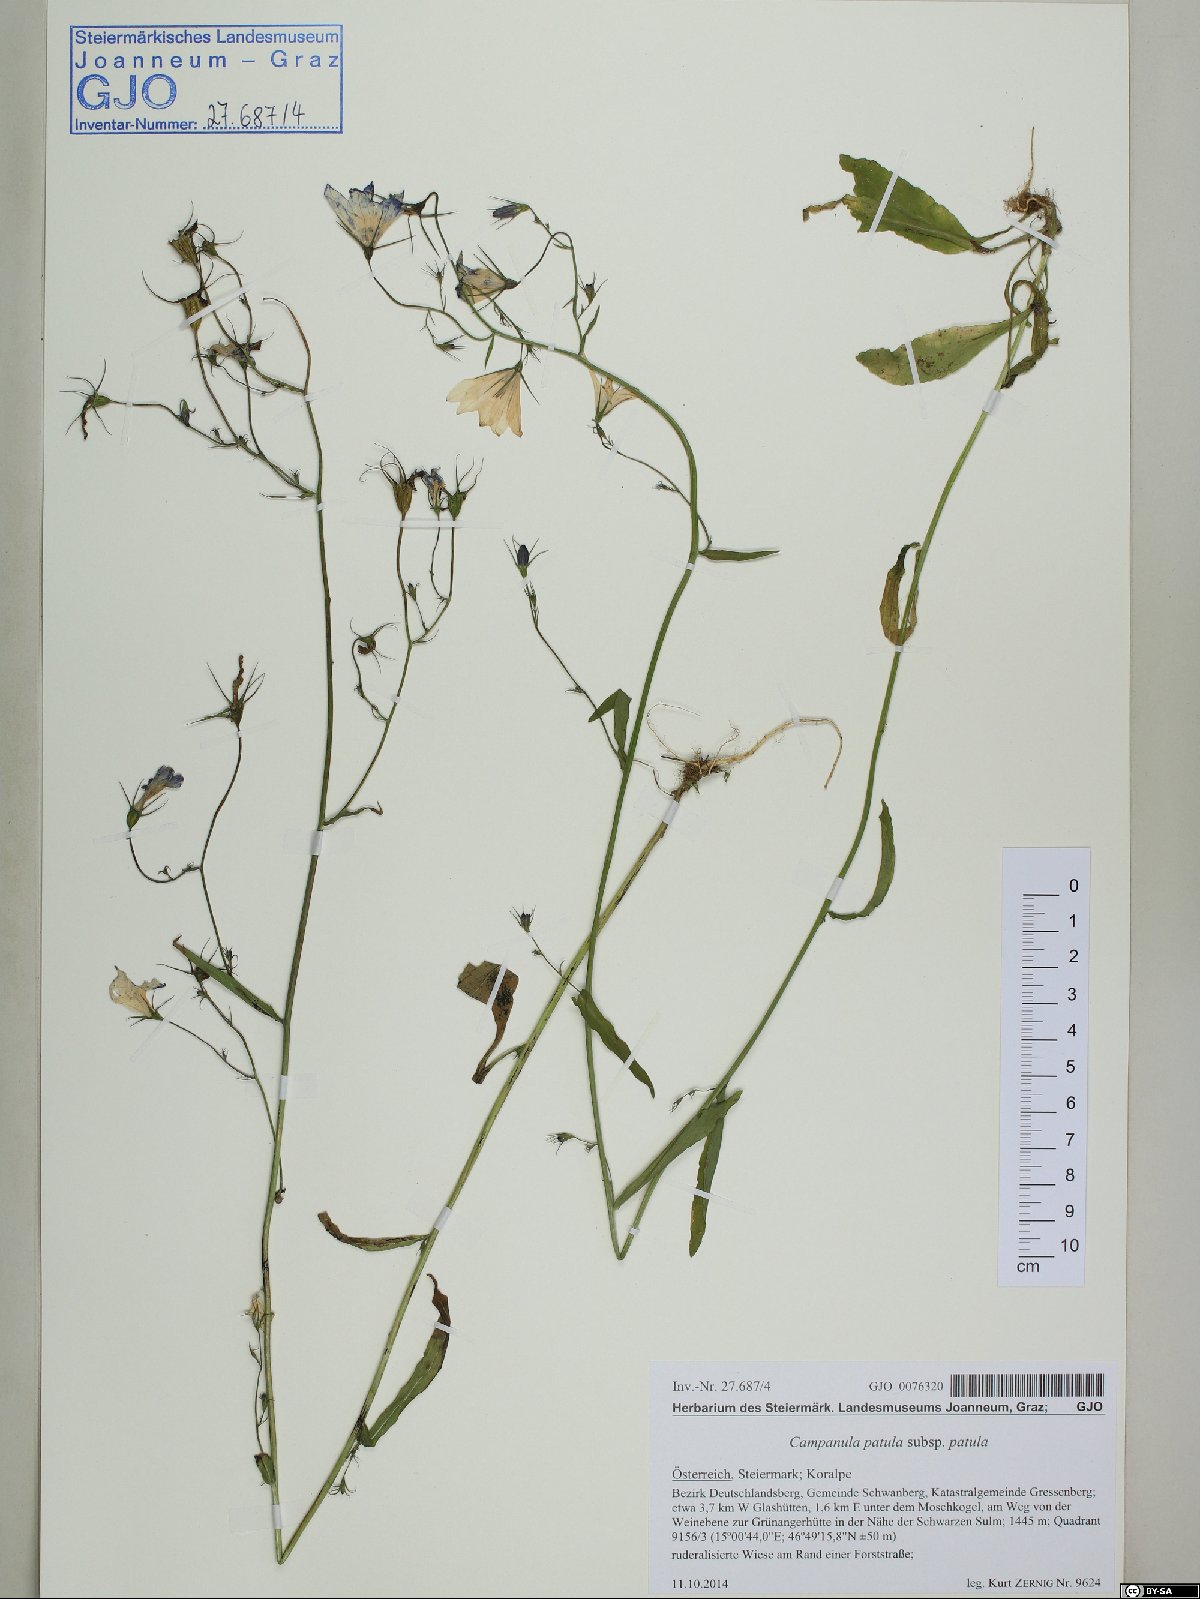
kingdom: Plantae
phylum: Tracheophyta
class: Magnoliopsida
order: Asterales
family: Campanulaceae
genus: Campanula
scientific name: Campanula patula
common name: Spreading bellflower
